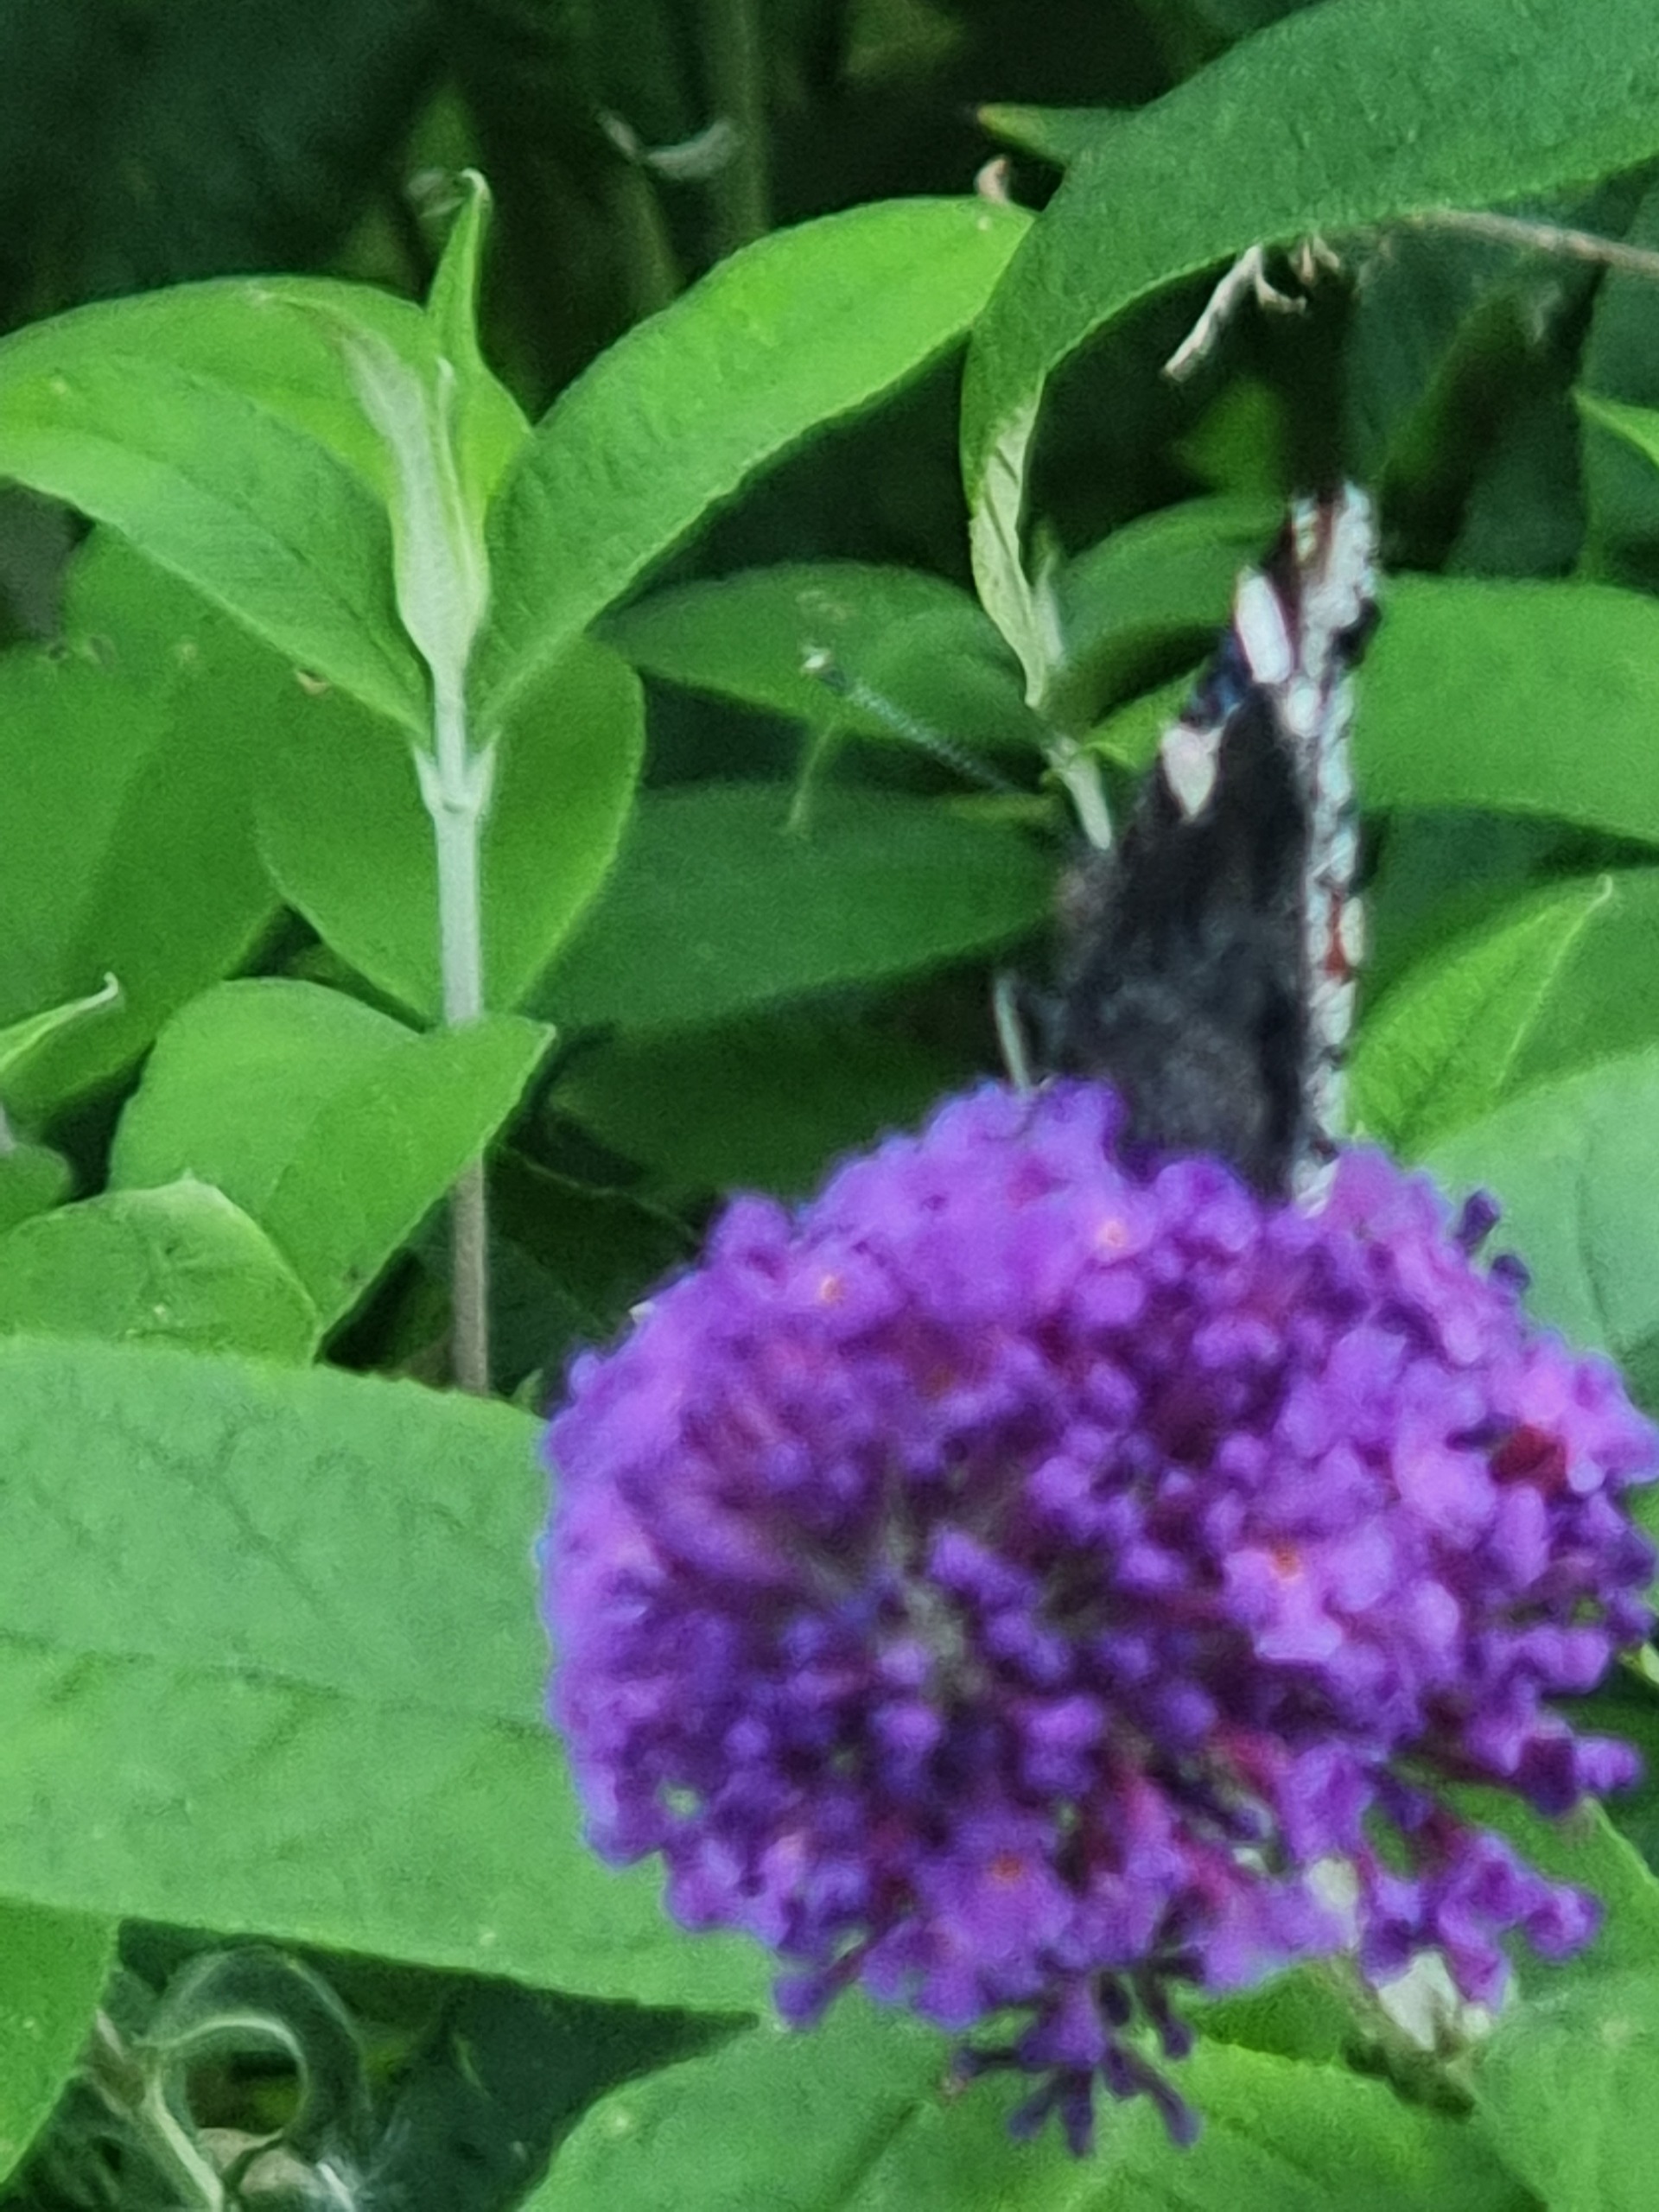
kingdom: Animalia
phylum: Arthropoda
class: Insecta
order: Lepidoptera
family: Nymphalidae
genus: Vanessa
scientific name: Vanessa atalanta
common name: Admiral
